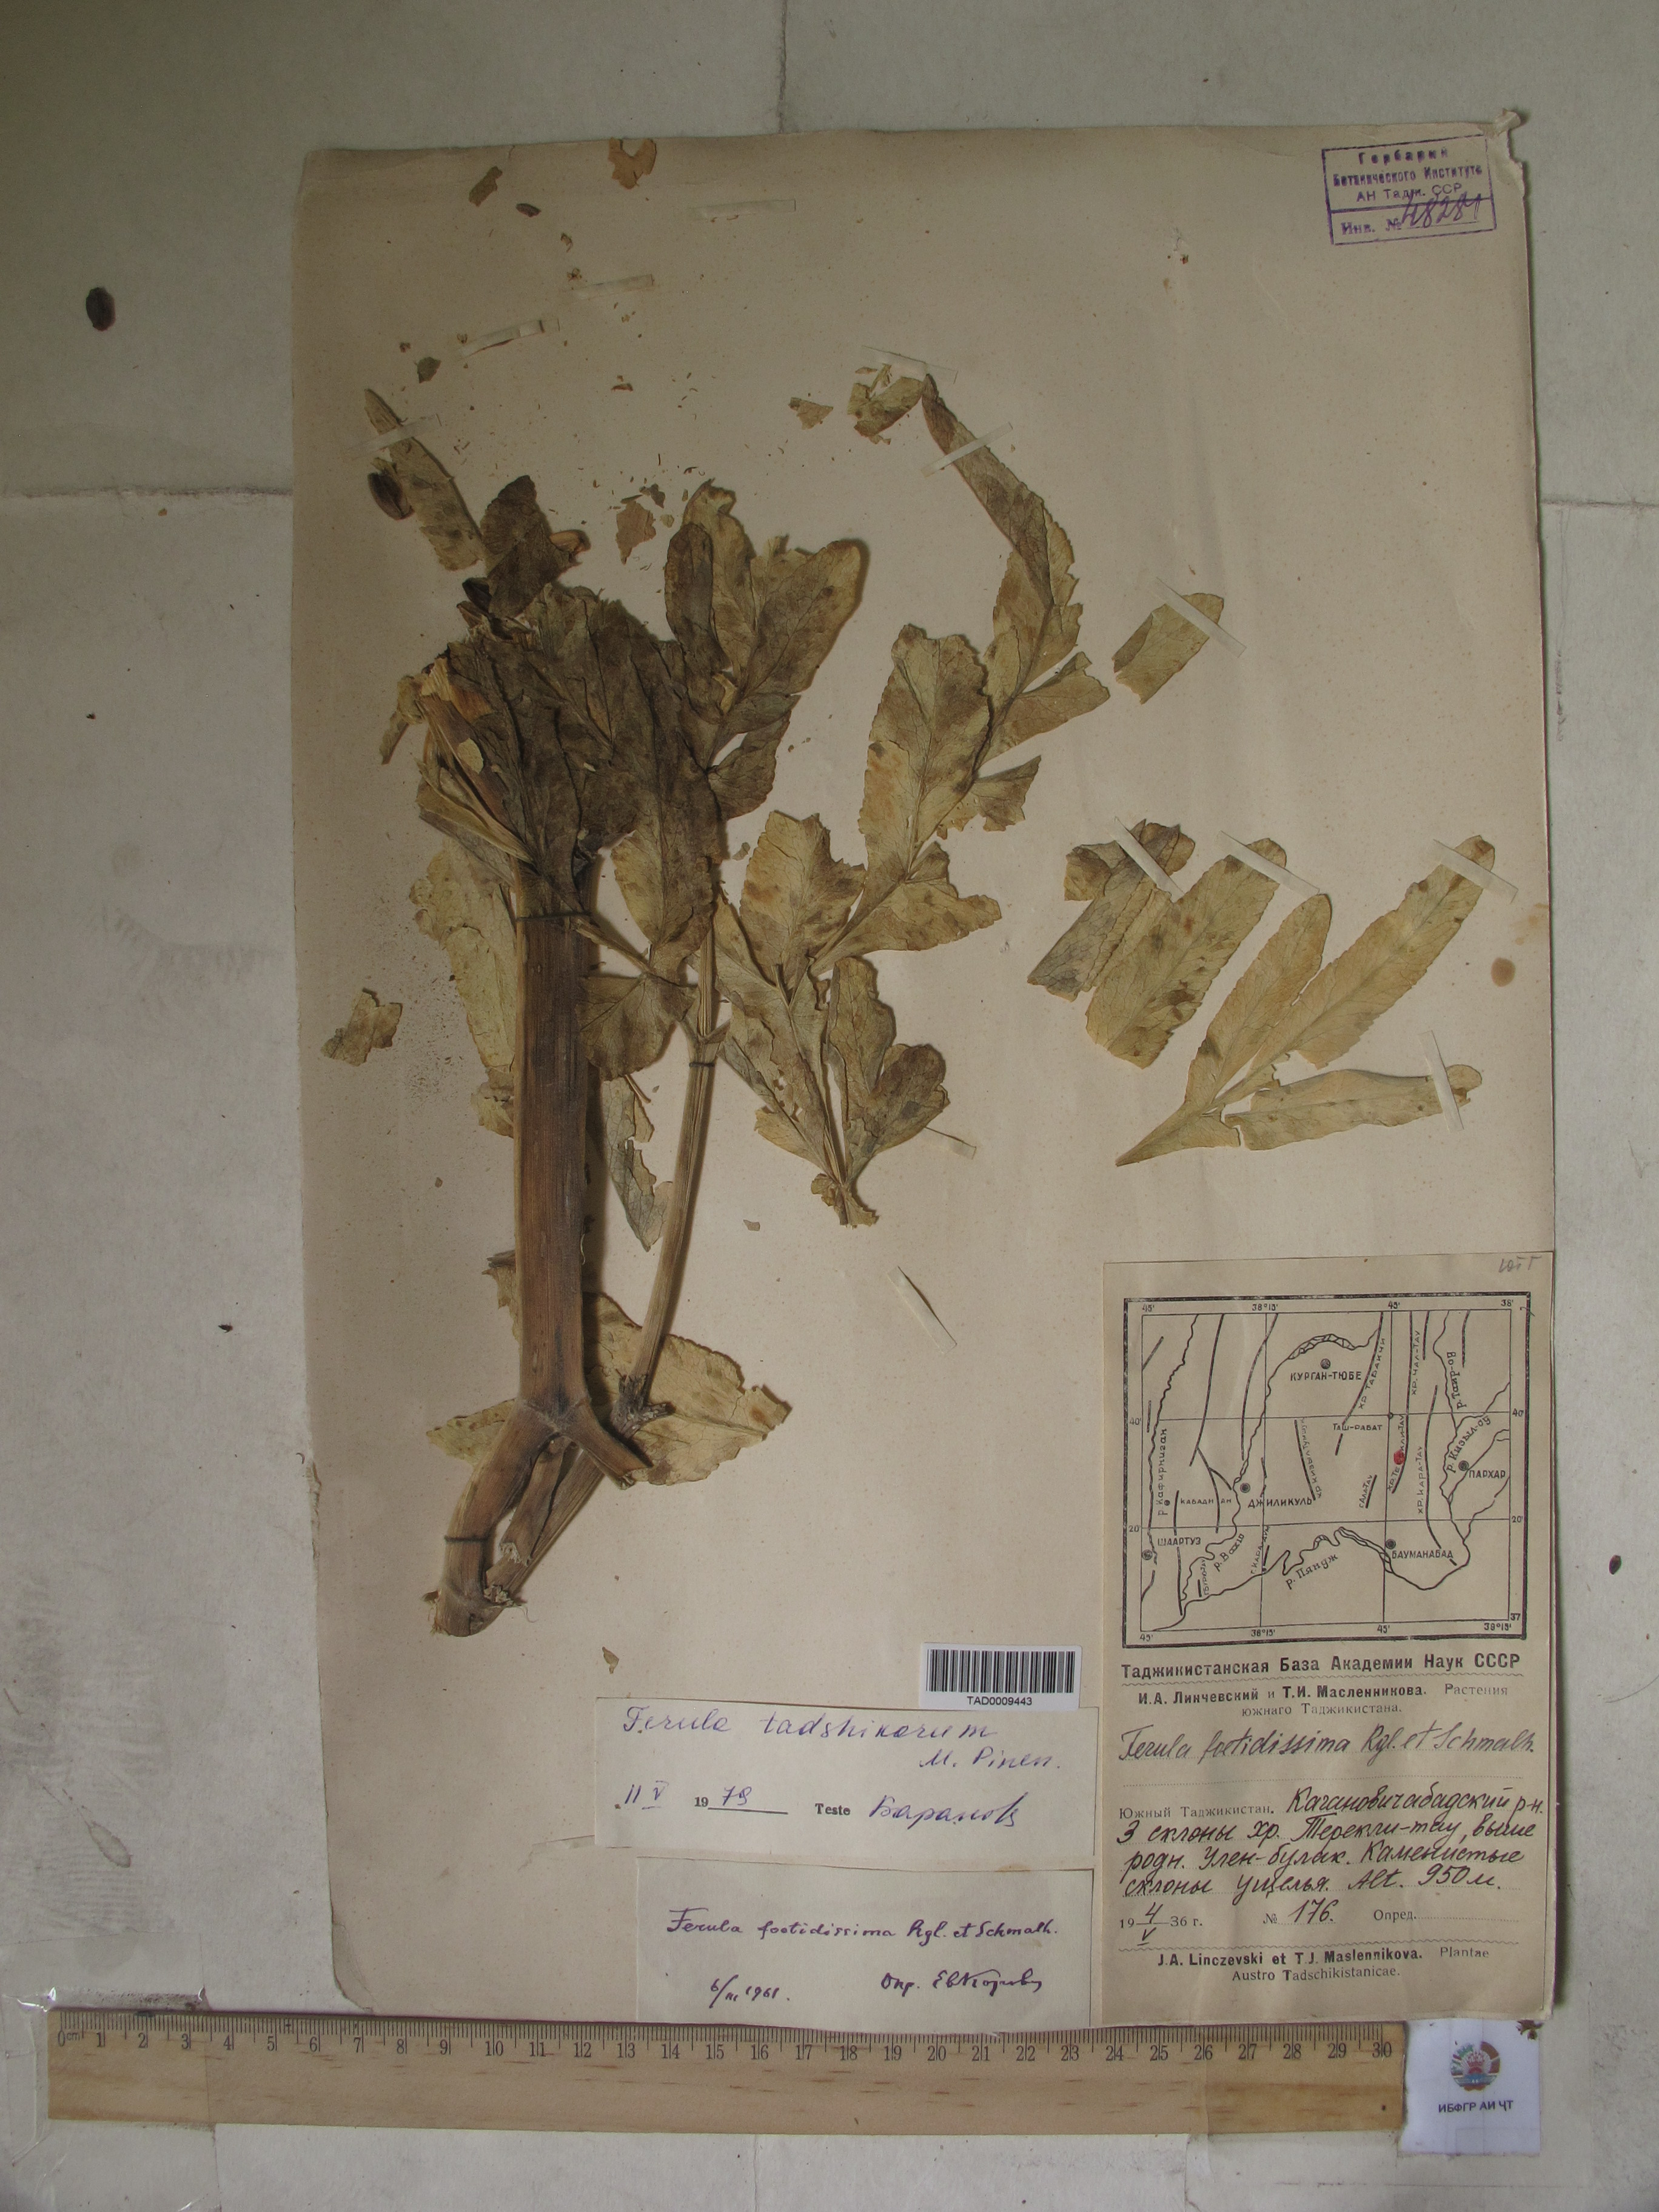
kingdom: Plantae
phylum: Tracheophyta
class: Magnoliopsida
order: Apiales
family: Apiaceae
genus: Ferula
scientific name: Ferula tadshikorum
